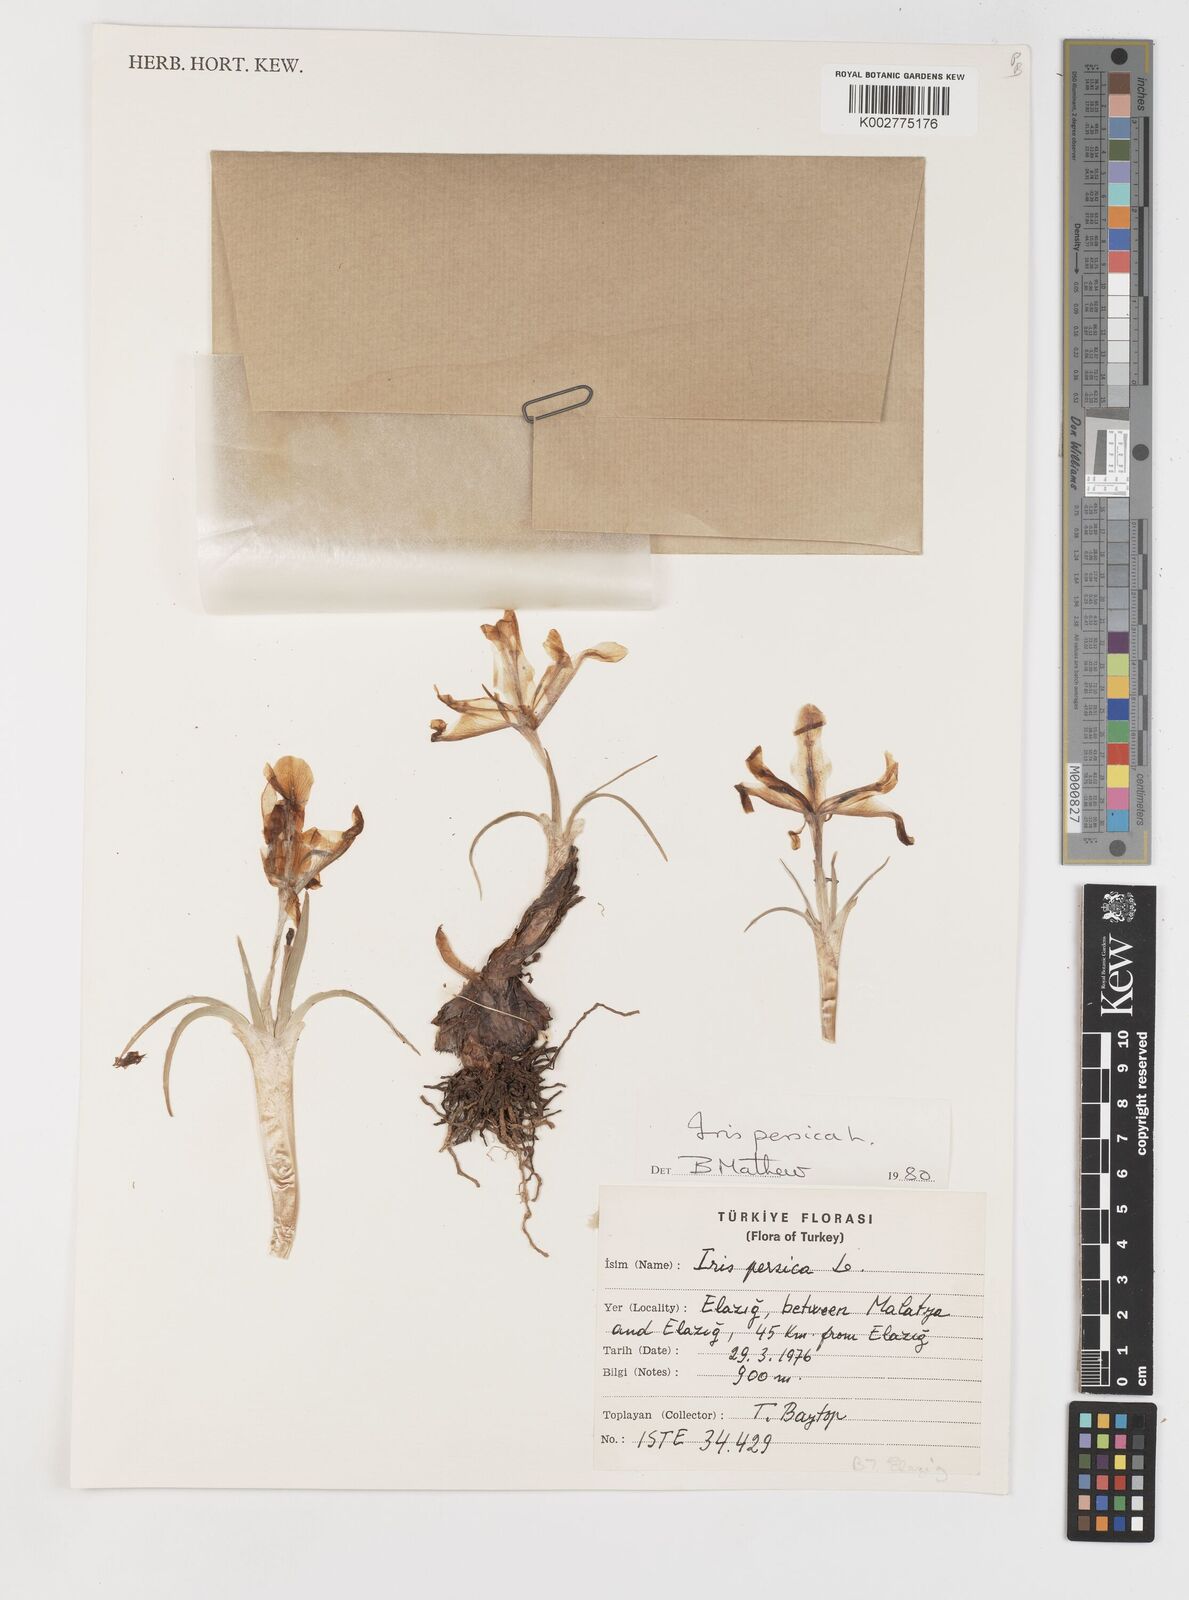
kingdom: Plantae
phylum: Tracheophyta
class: Liliopsida
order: Asparagales
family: Iridaceae
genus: Iris
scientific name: Iris persica
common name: Persian iris
